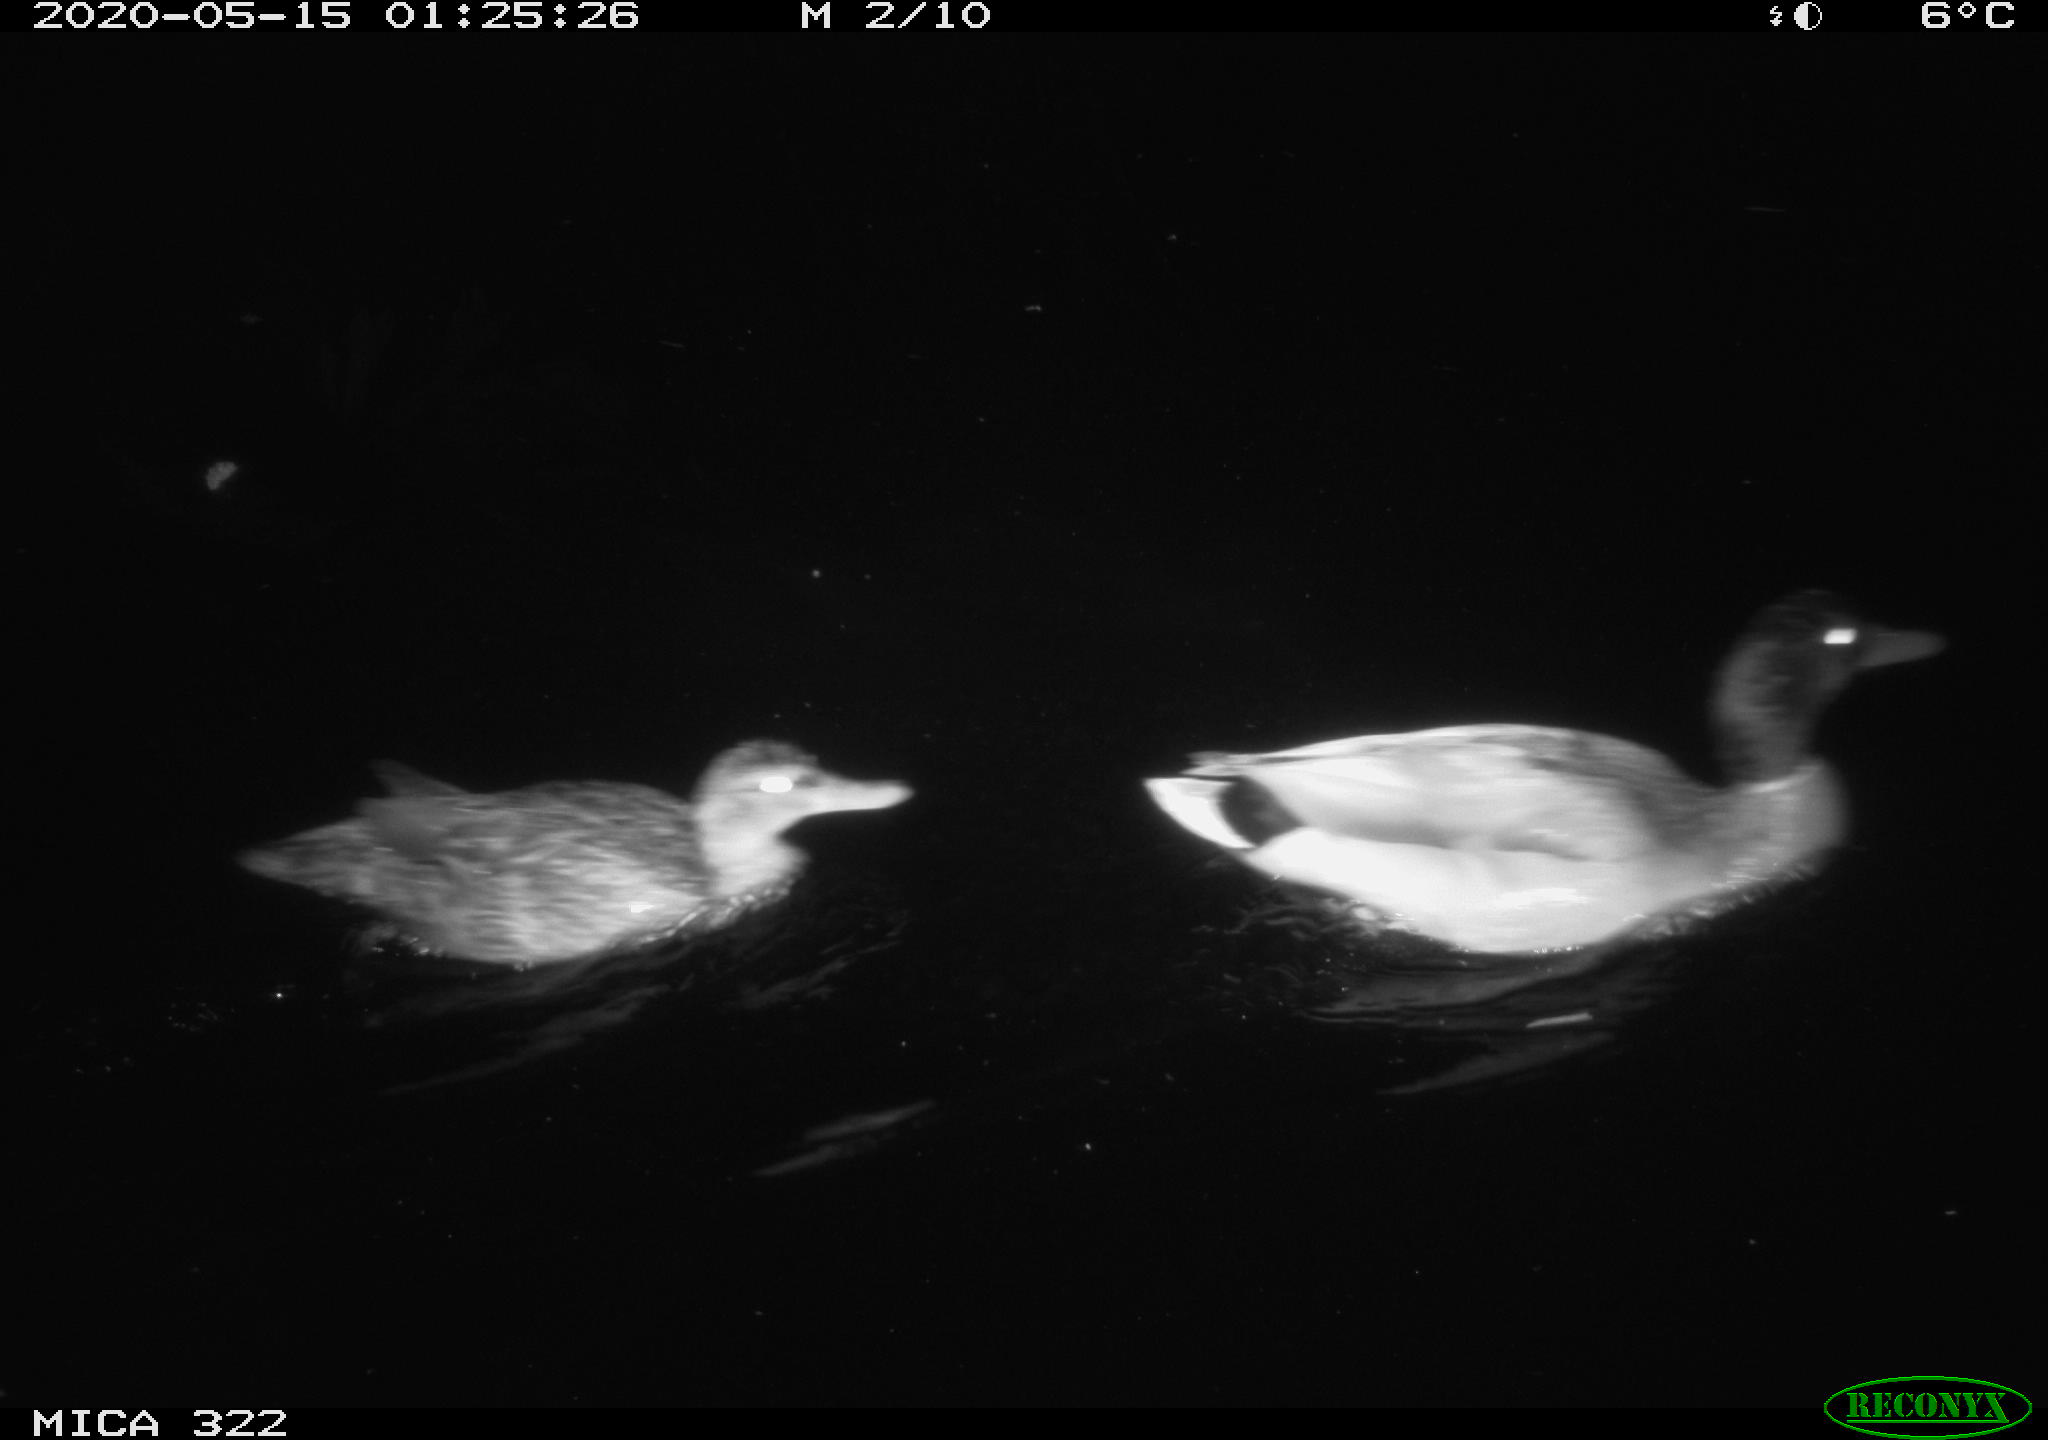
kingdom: Animalia
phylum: Chordata
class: Aves
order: Anseriformes
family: Anatidae
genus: Anas
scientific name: Anas platyrhynchos
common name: Mallard
